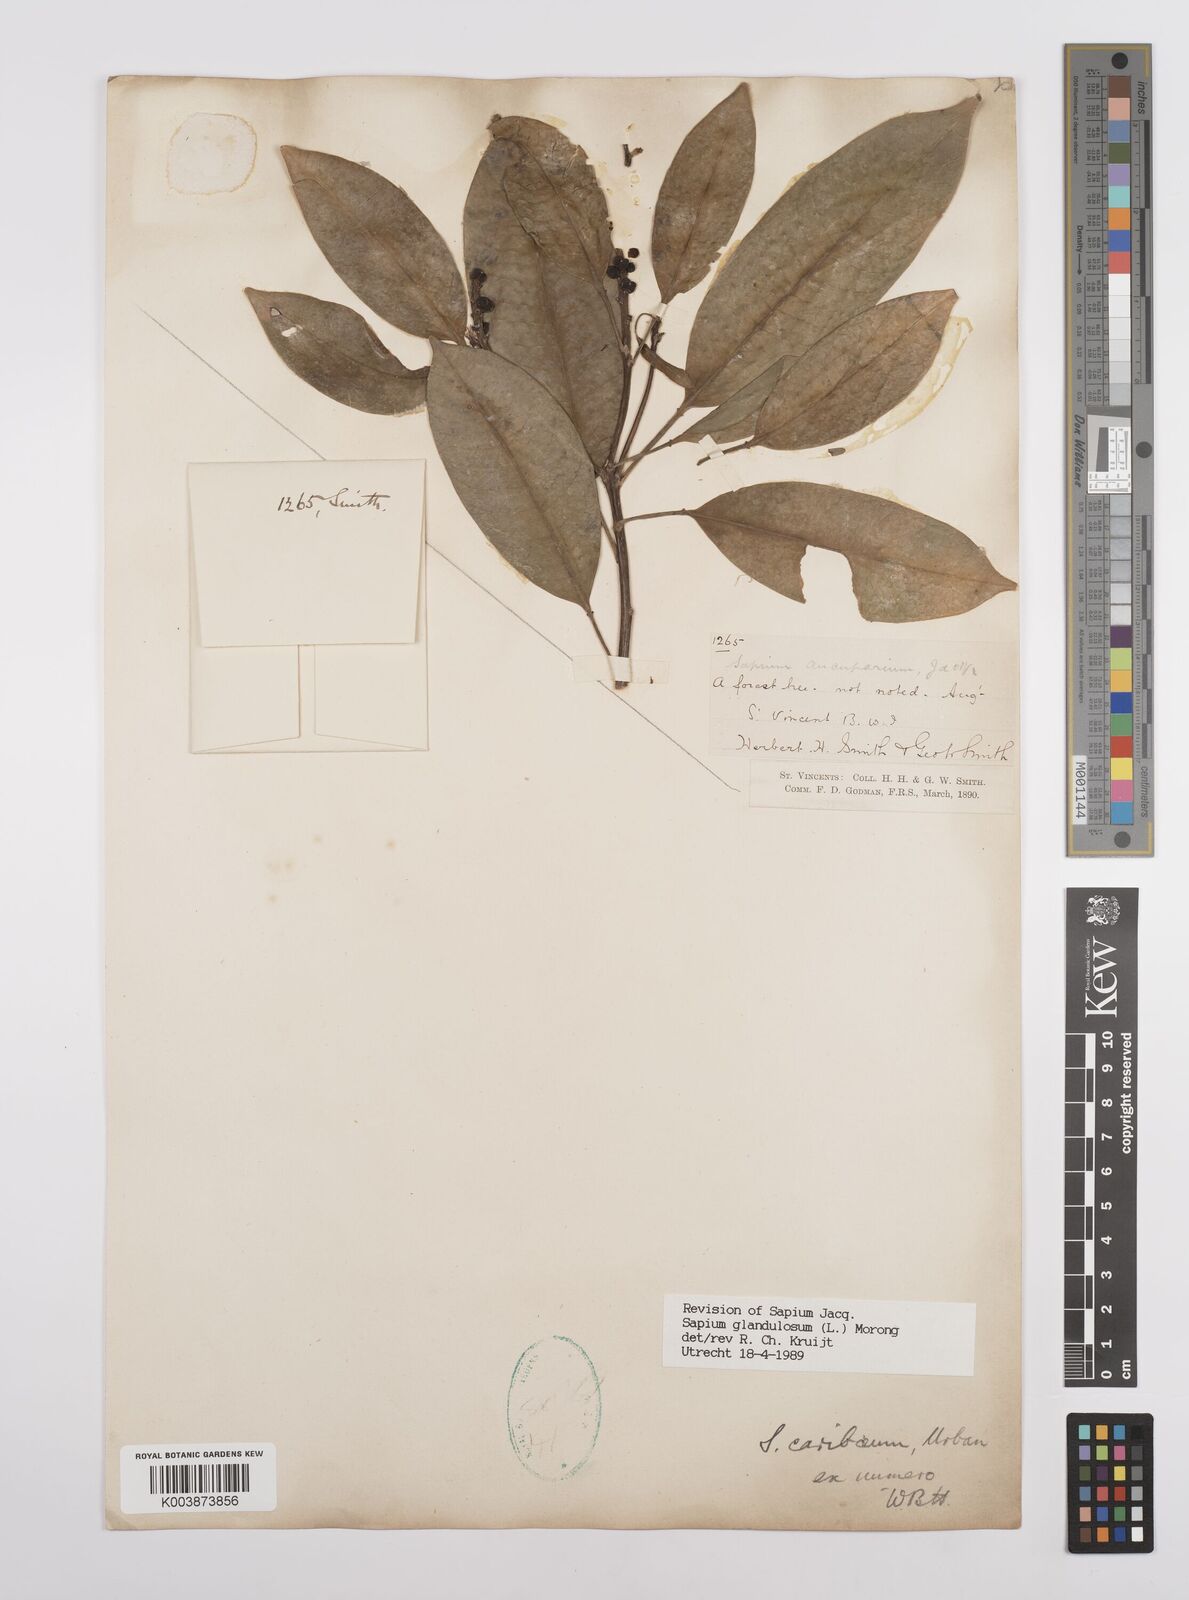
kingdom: Plantae
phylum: Tracheophyta
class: Magnoliopsida
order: Malpighiales
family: Euphorbiaceae
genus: Sapium
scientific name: Sapium glandulosum
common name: Milktree
